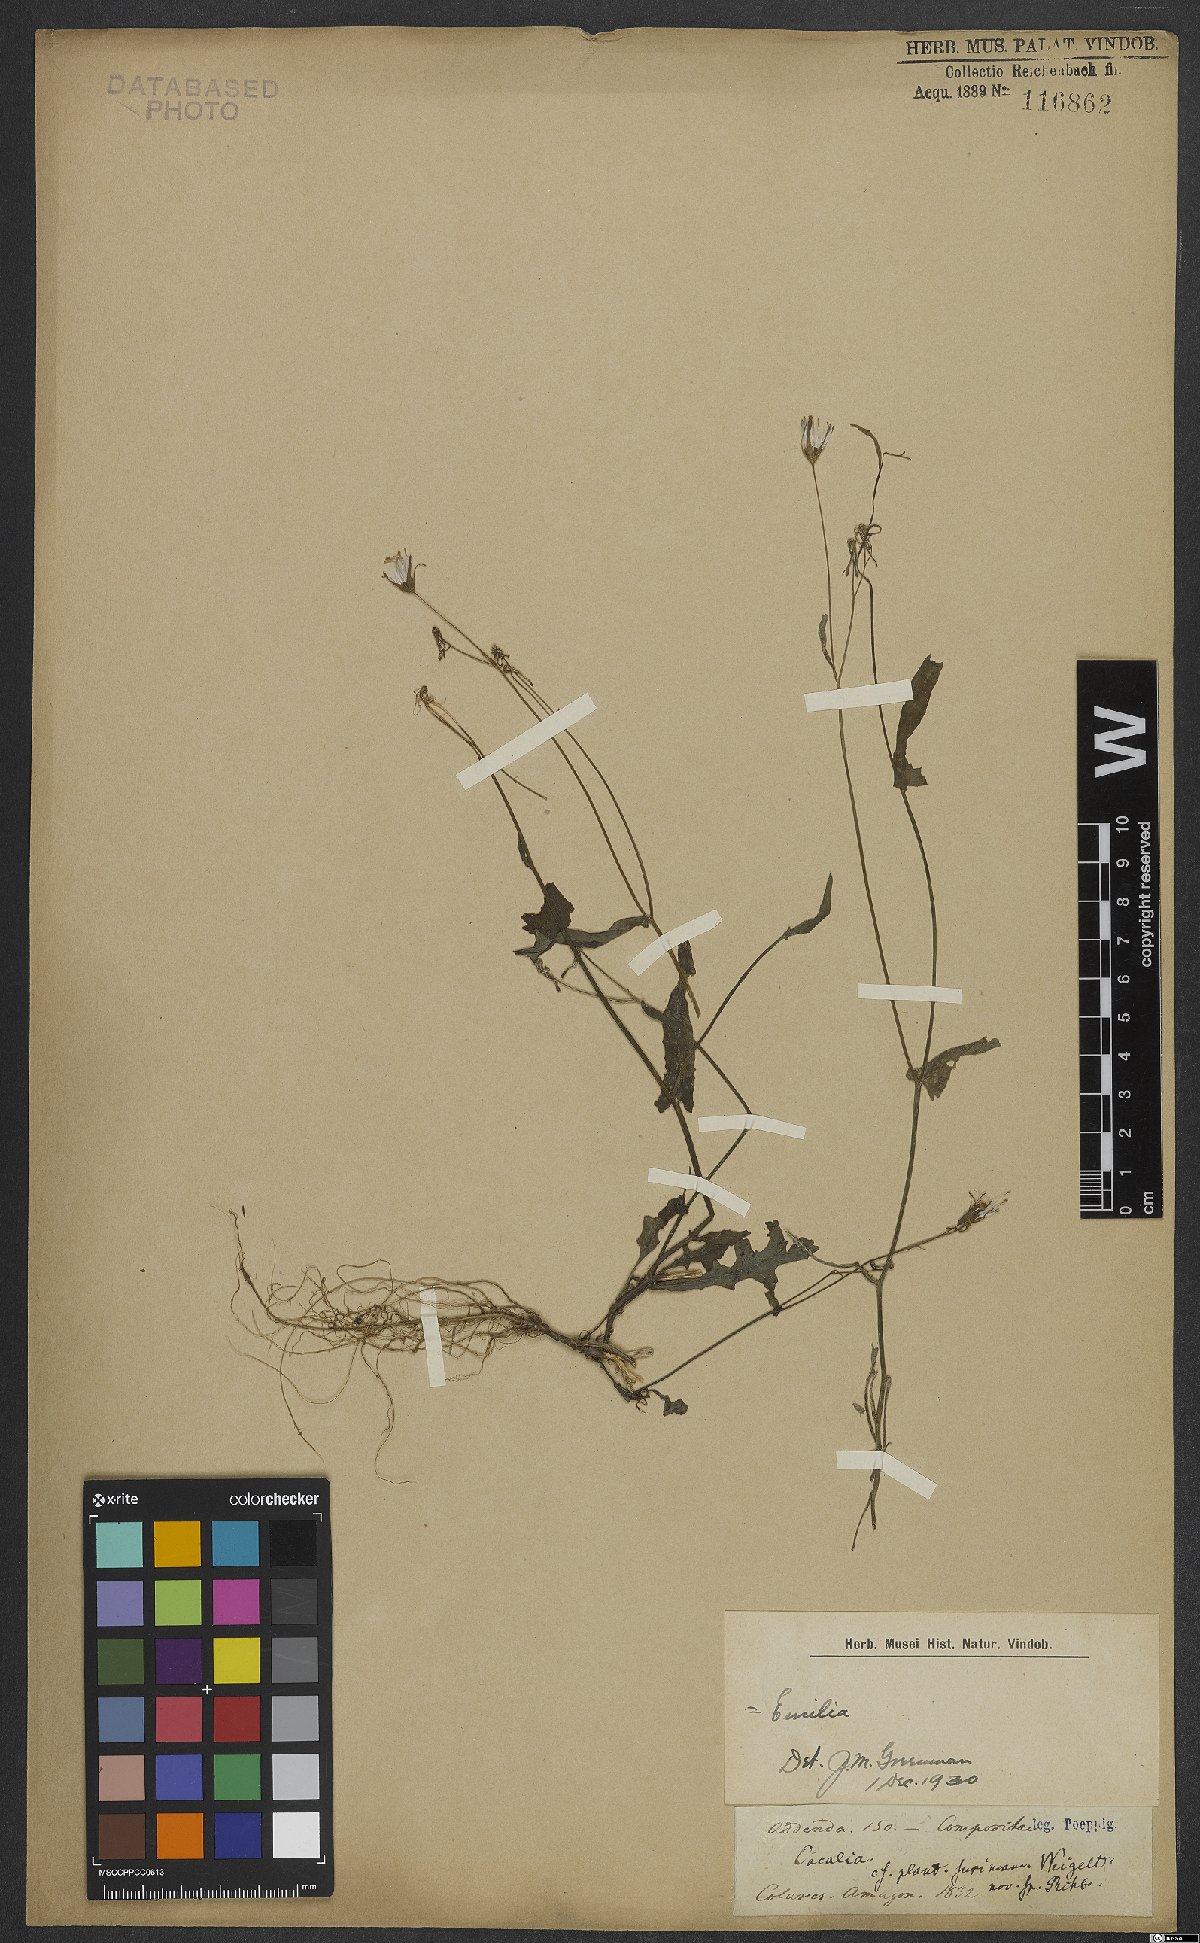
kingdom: Plantae
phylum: Tracheophyta
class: Magnoliopsida
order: Asterales
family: Asteraceae
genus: Emilia
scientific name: Emilia sonchifolia
